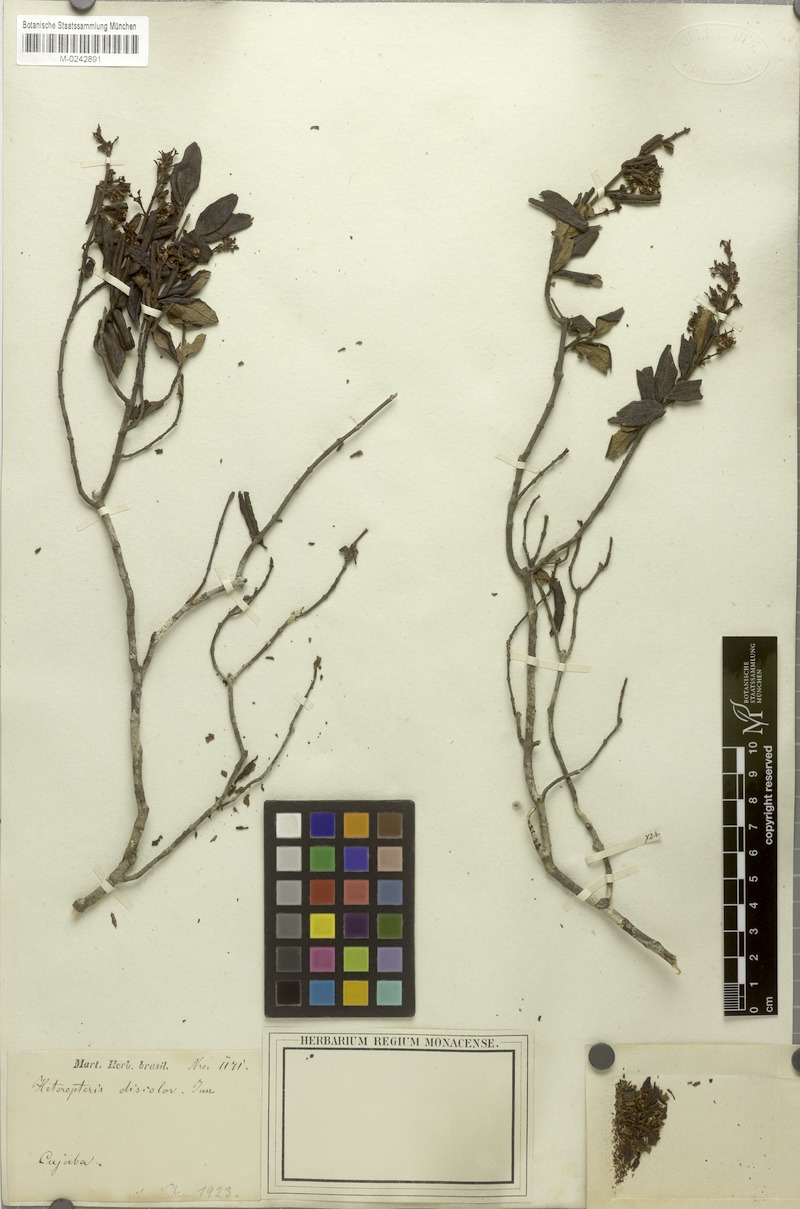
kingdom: Plantae
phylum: Tracheophyta
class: Magnoliopsida
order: Malpighiales
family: Malpighiaceae
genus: Heteropterys
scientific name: Heteropterys campestris
